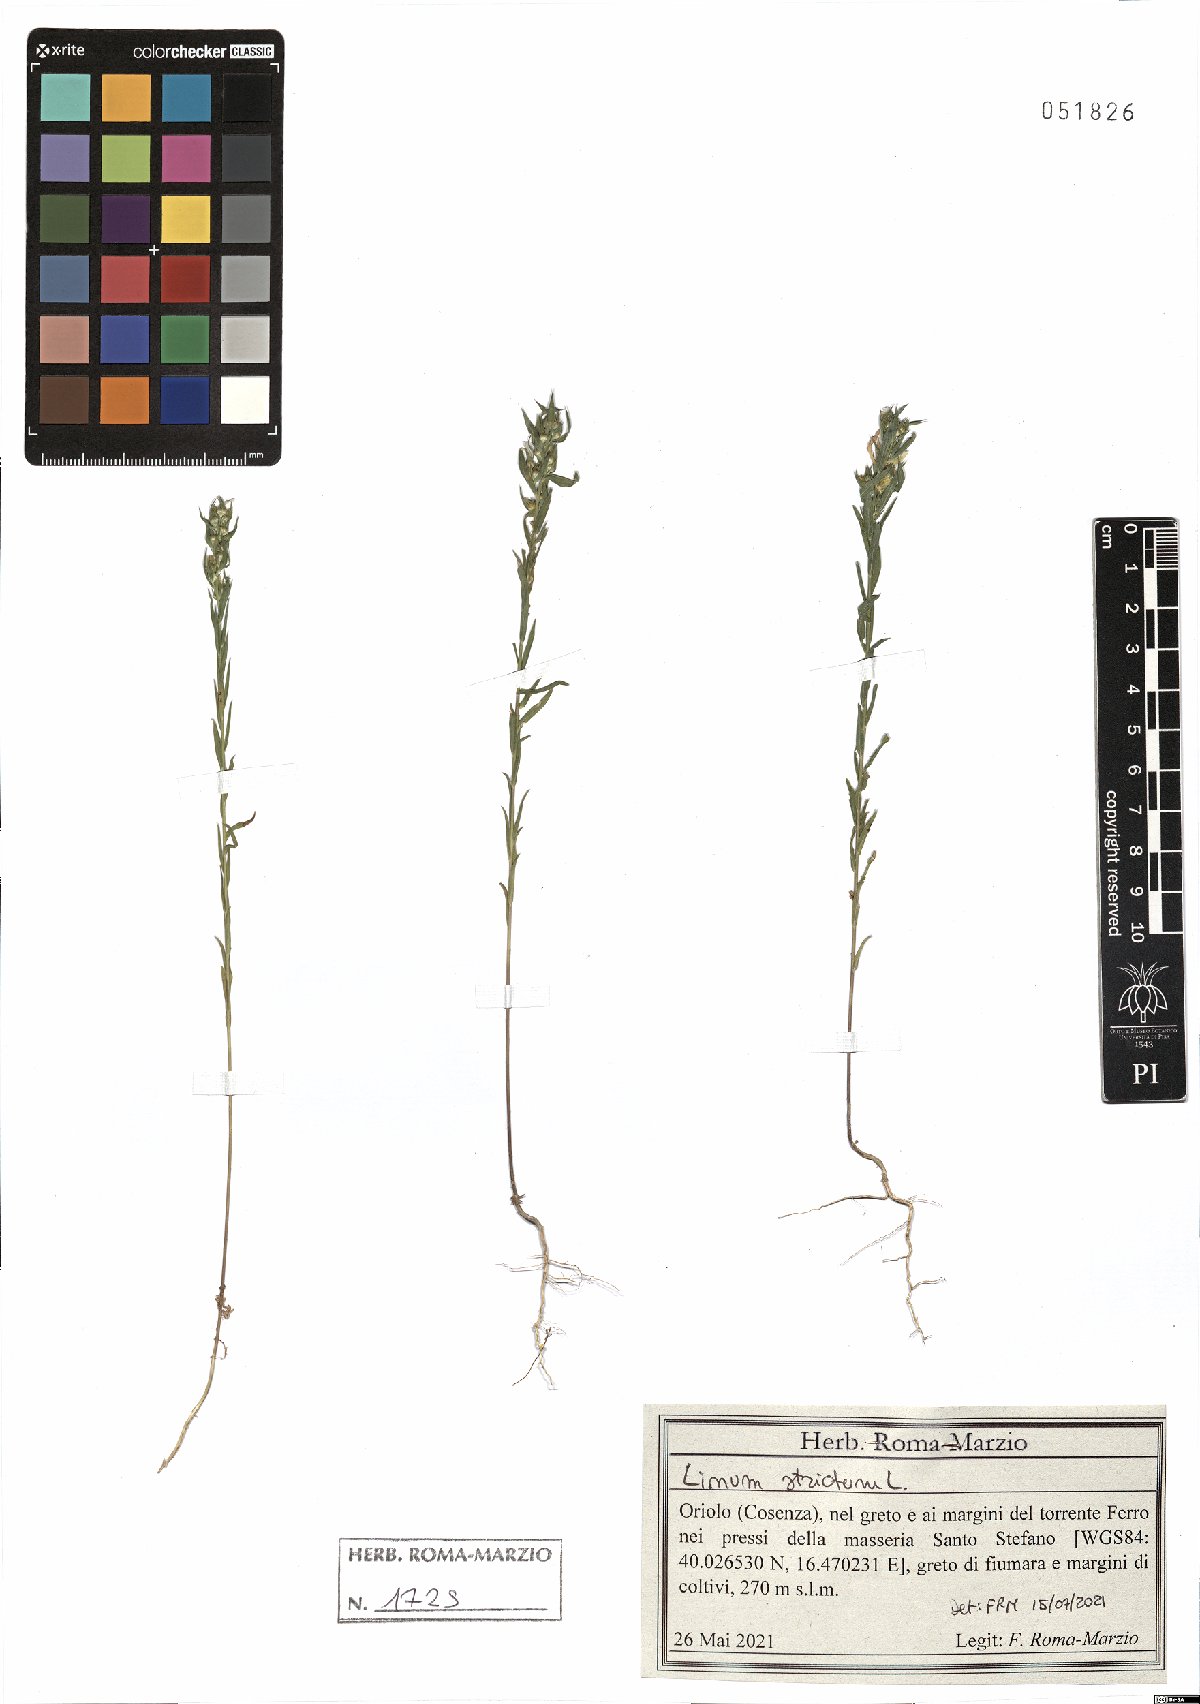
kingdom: Plantae
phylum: Tracheophyta
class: Magnoliopsida
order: Malpighiales
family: Linaceae
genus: Linum
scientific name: Linum strictum
